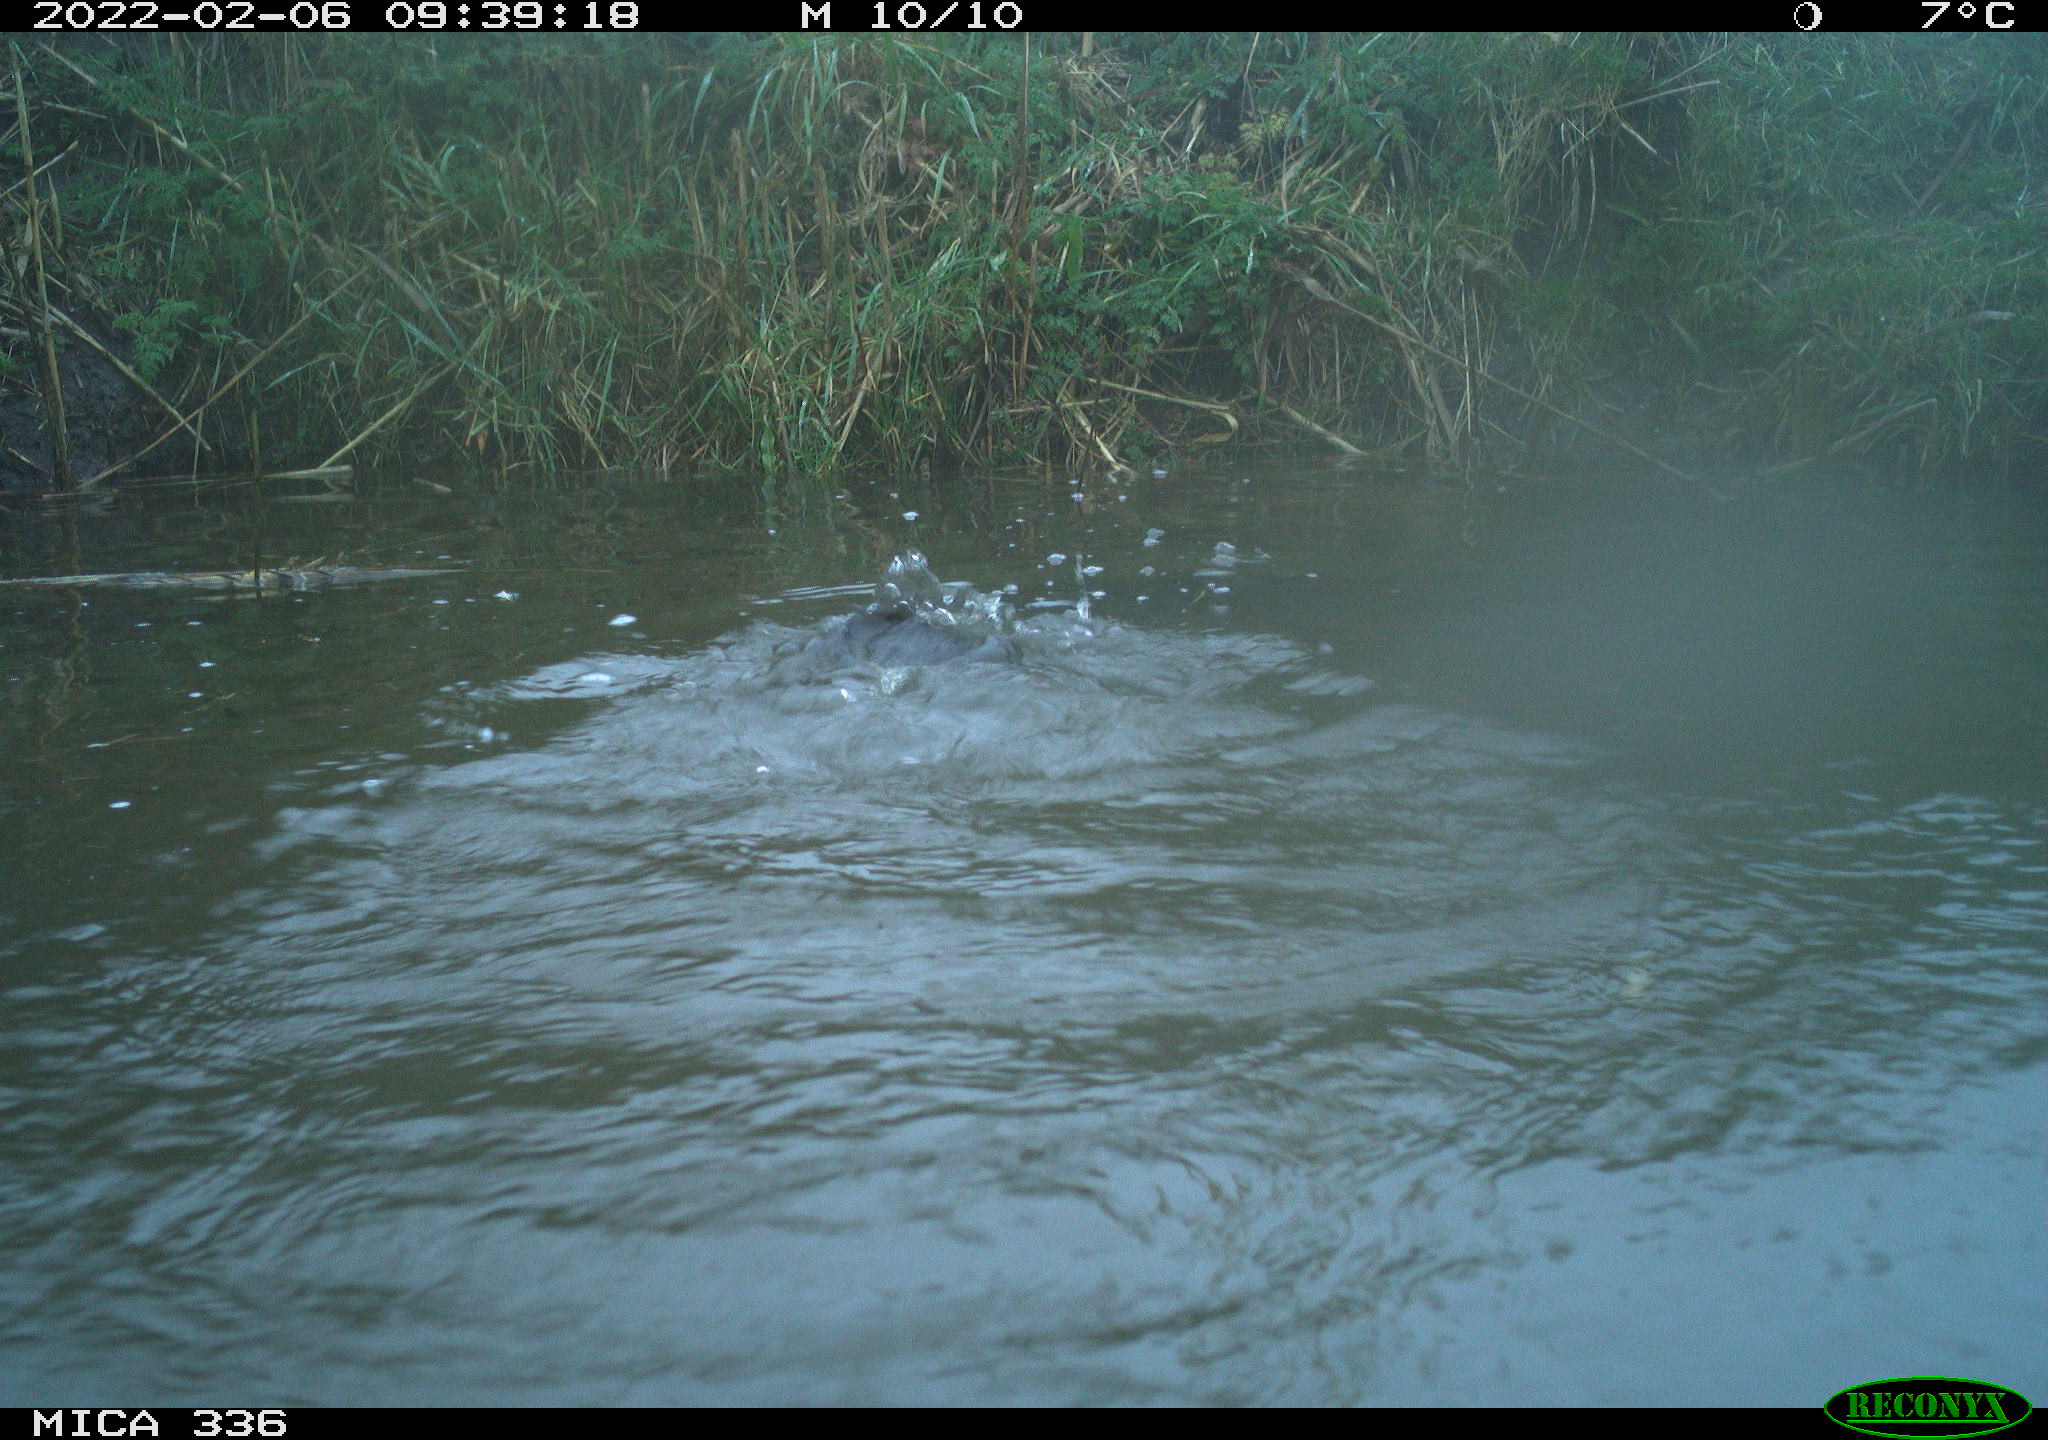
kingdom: Animalia
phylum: Chordata
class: Aves
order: Suliformes
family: Phalacrocoracidae
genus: Phalacrocorax
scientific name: Phalacrocorax carbo
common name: Great cormorant
